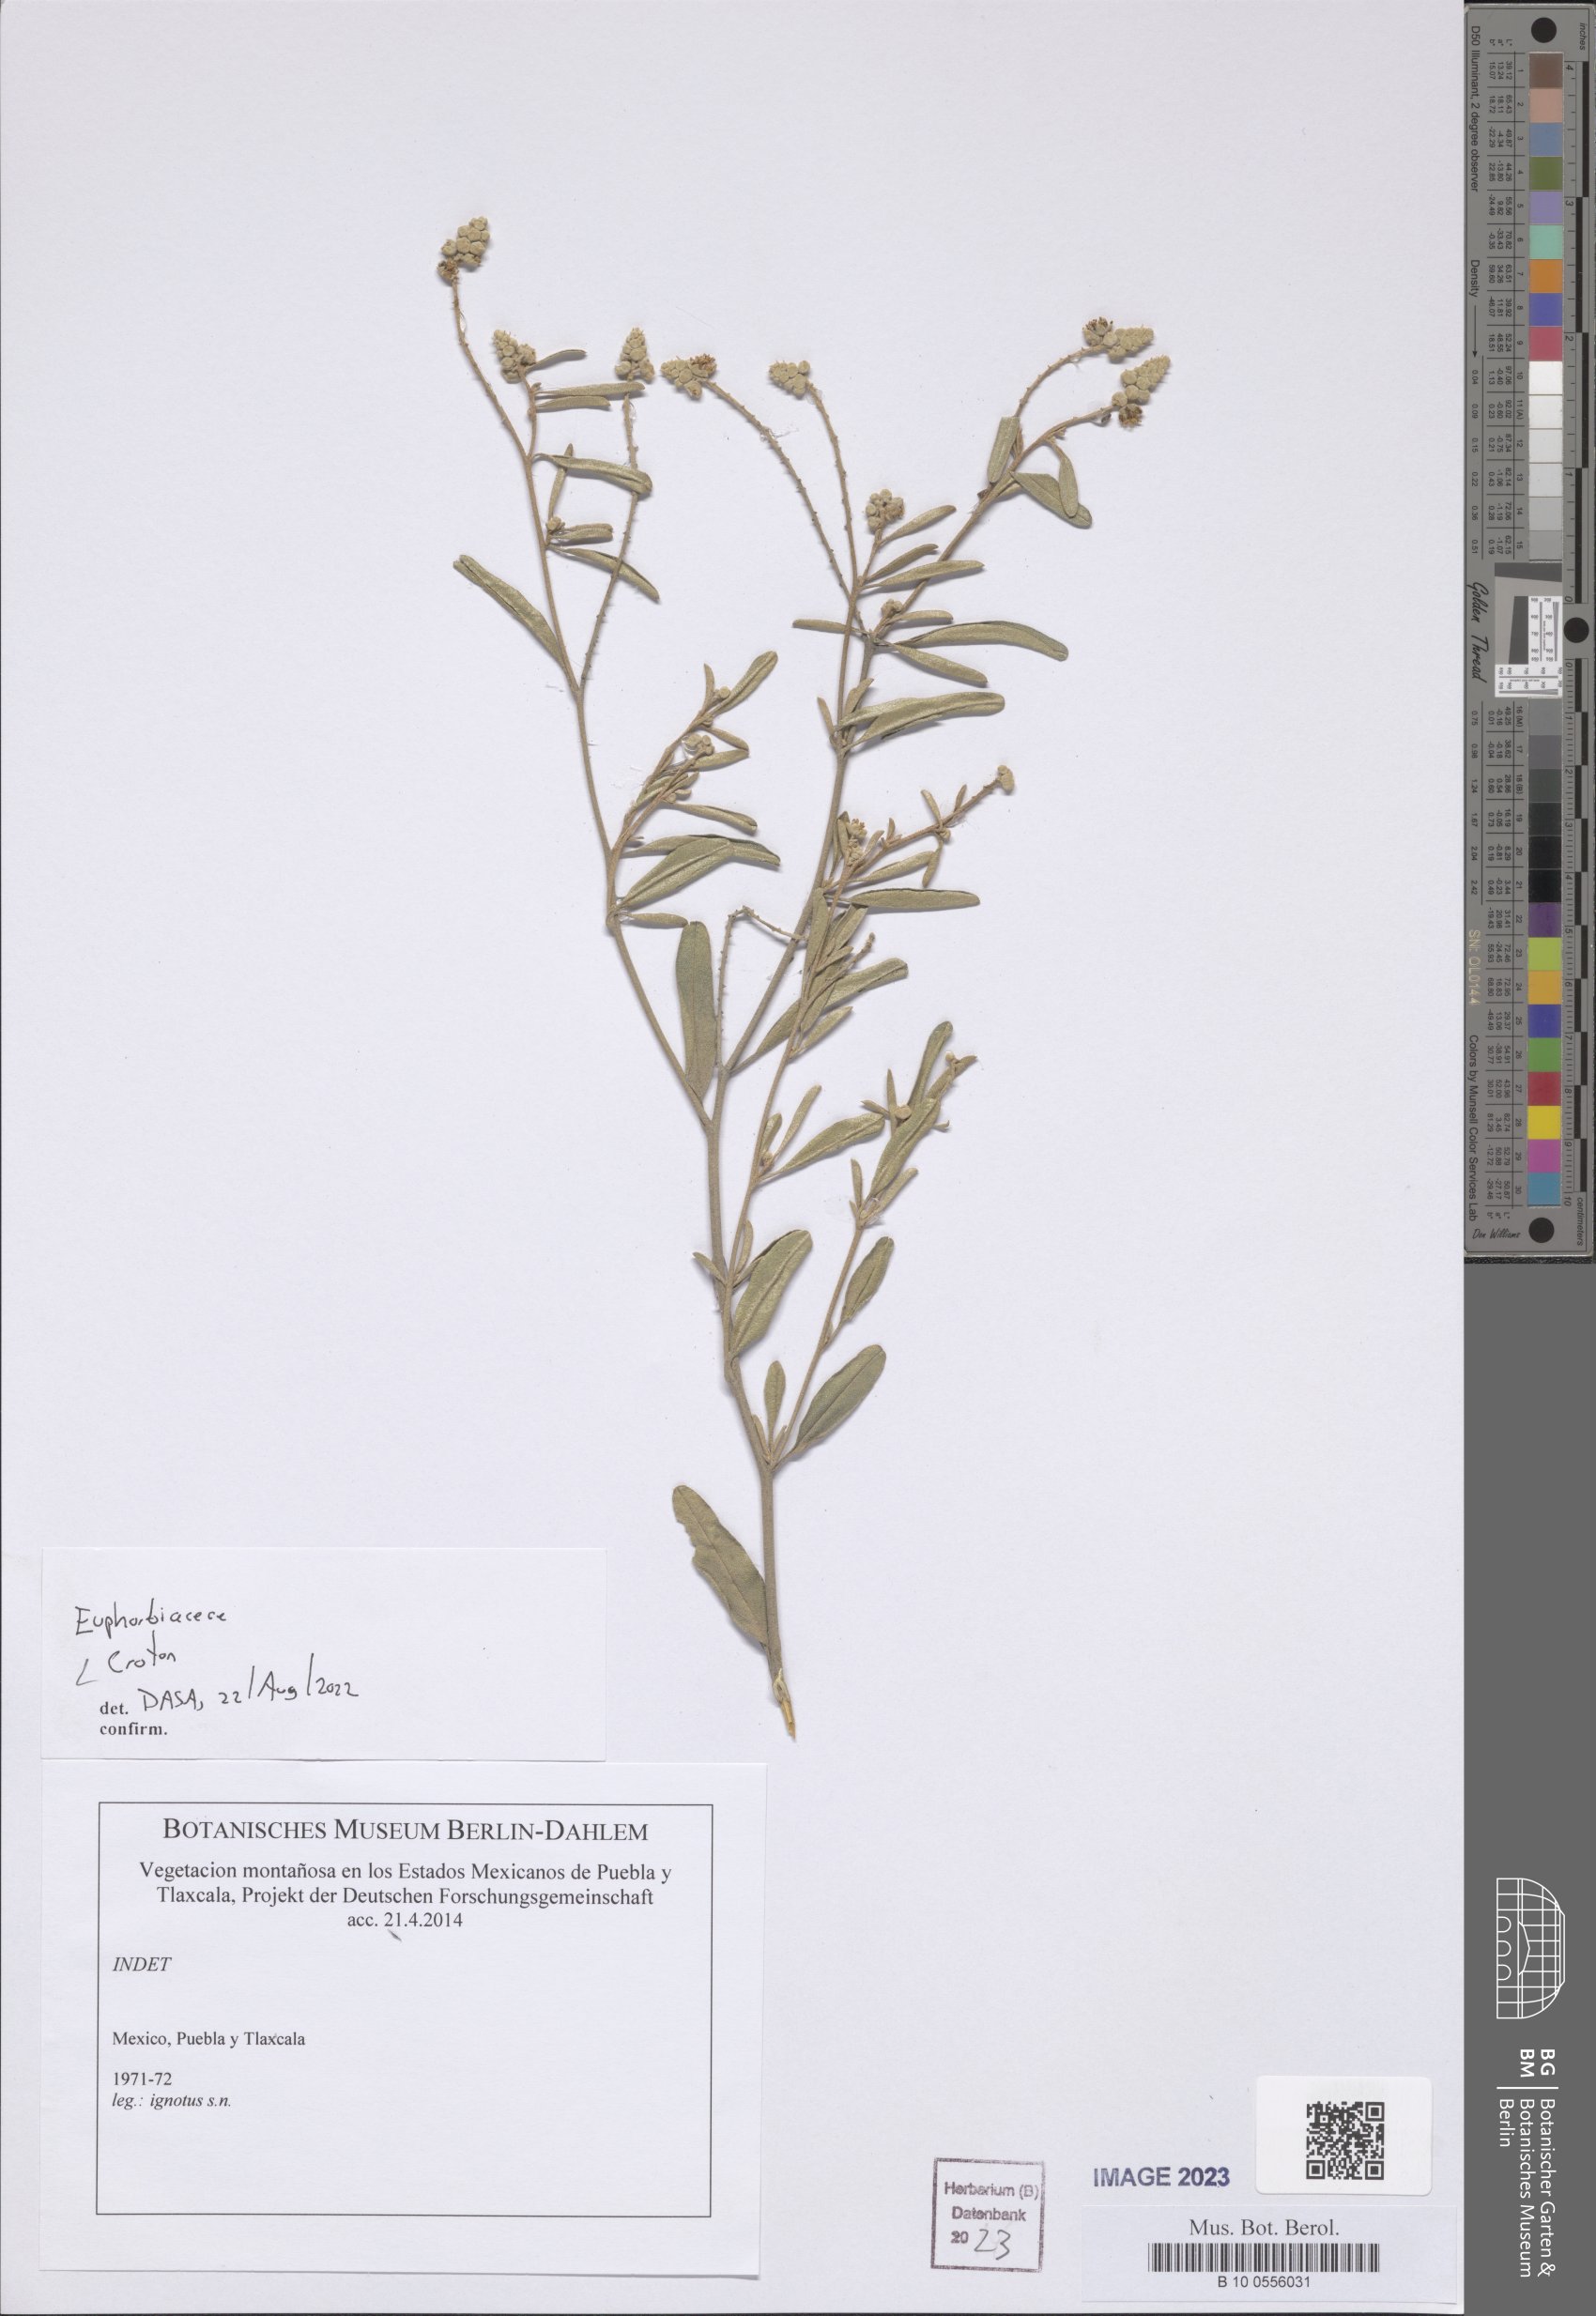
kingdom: Plantae
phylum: Tracheophyta
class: Magnoliopsida
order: Malpighiales
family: Euphorbiaceae
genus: Croton
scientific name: Croton
